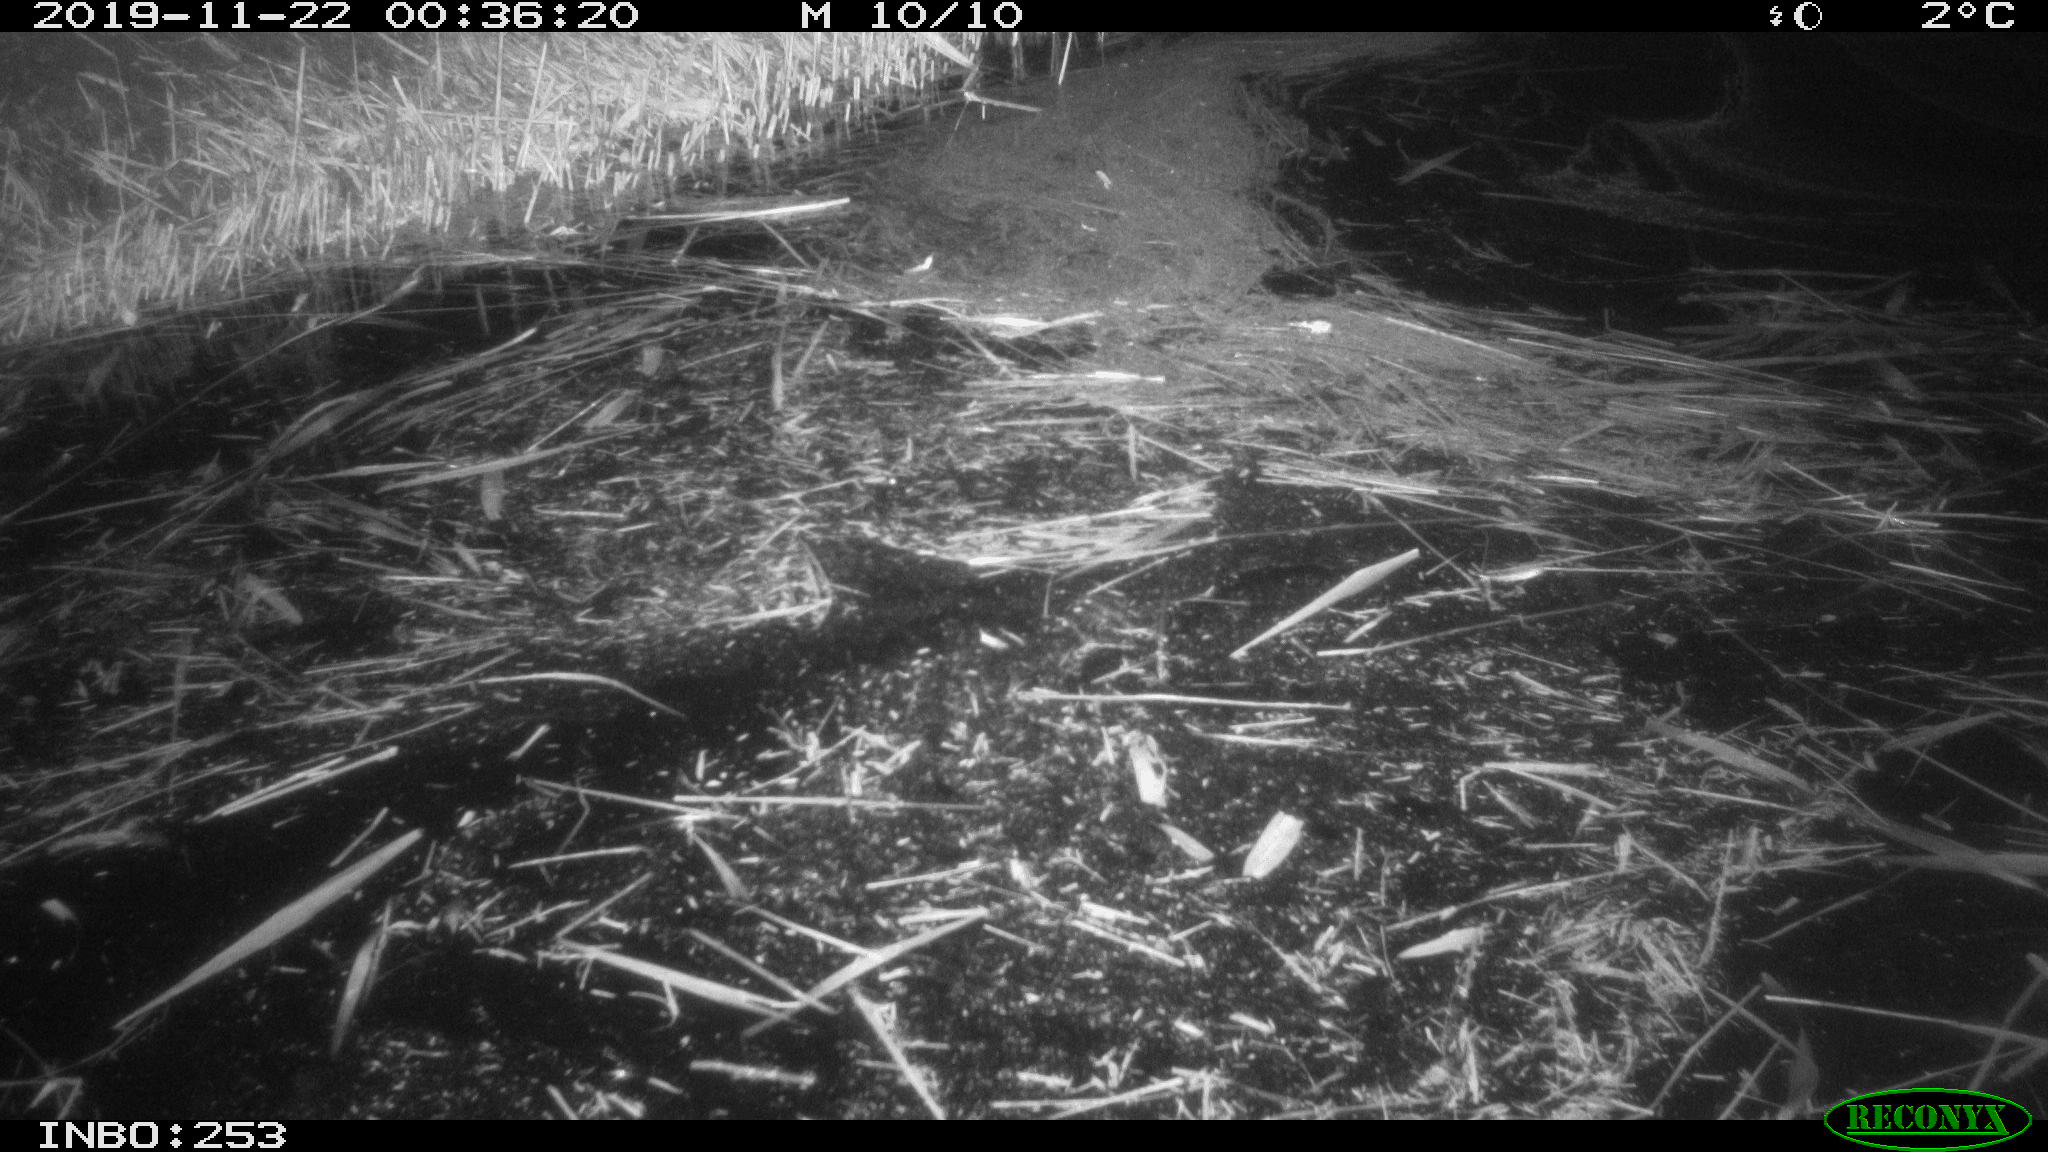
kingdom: Animalia
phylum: Chordata
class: Aves
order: Anseriformes
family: Anatidae
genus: Anas
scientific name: Anas platyrhynchos
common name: Mallard
